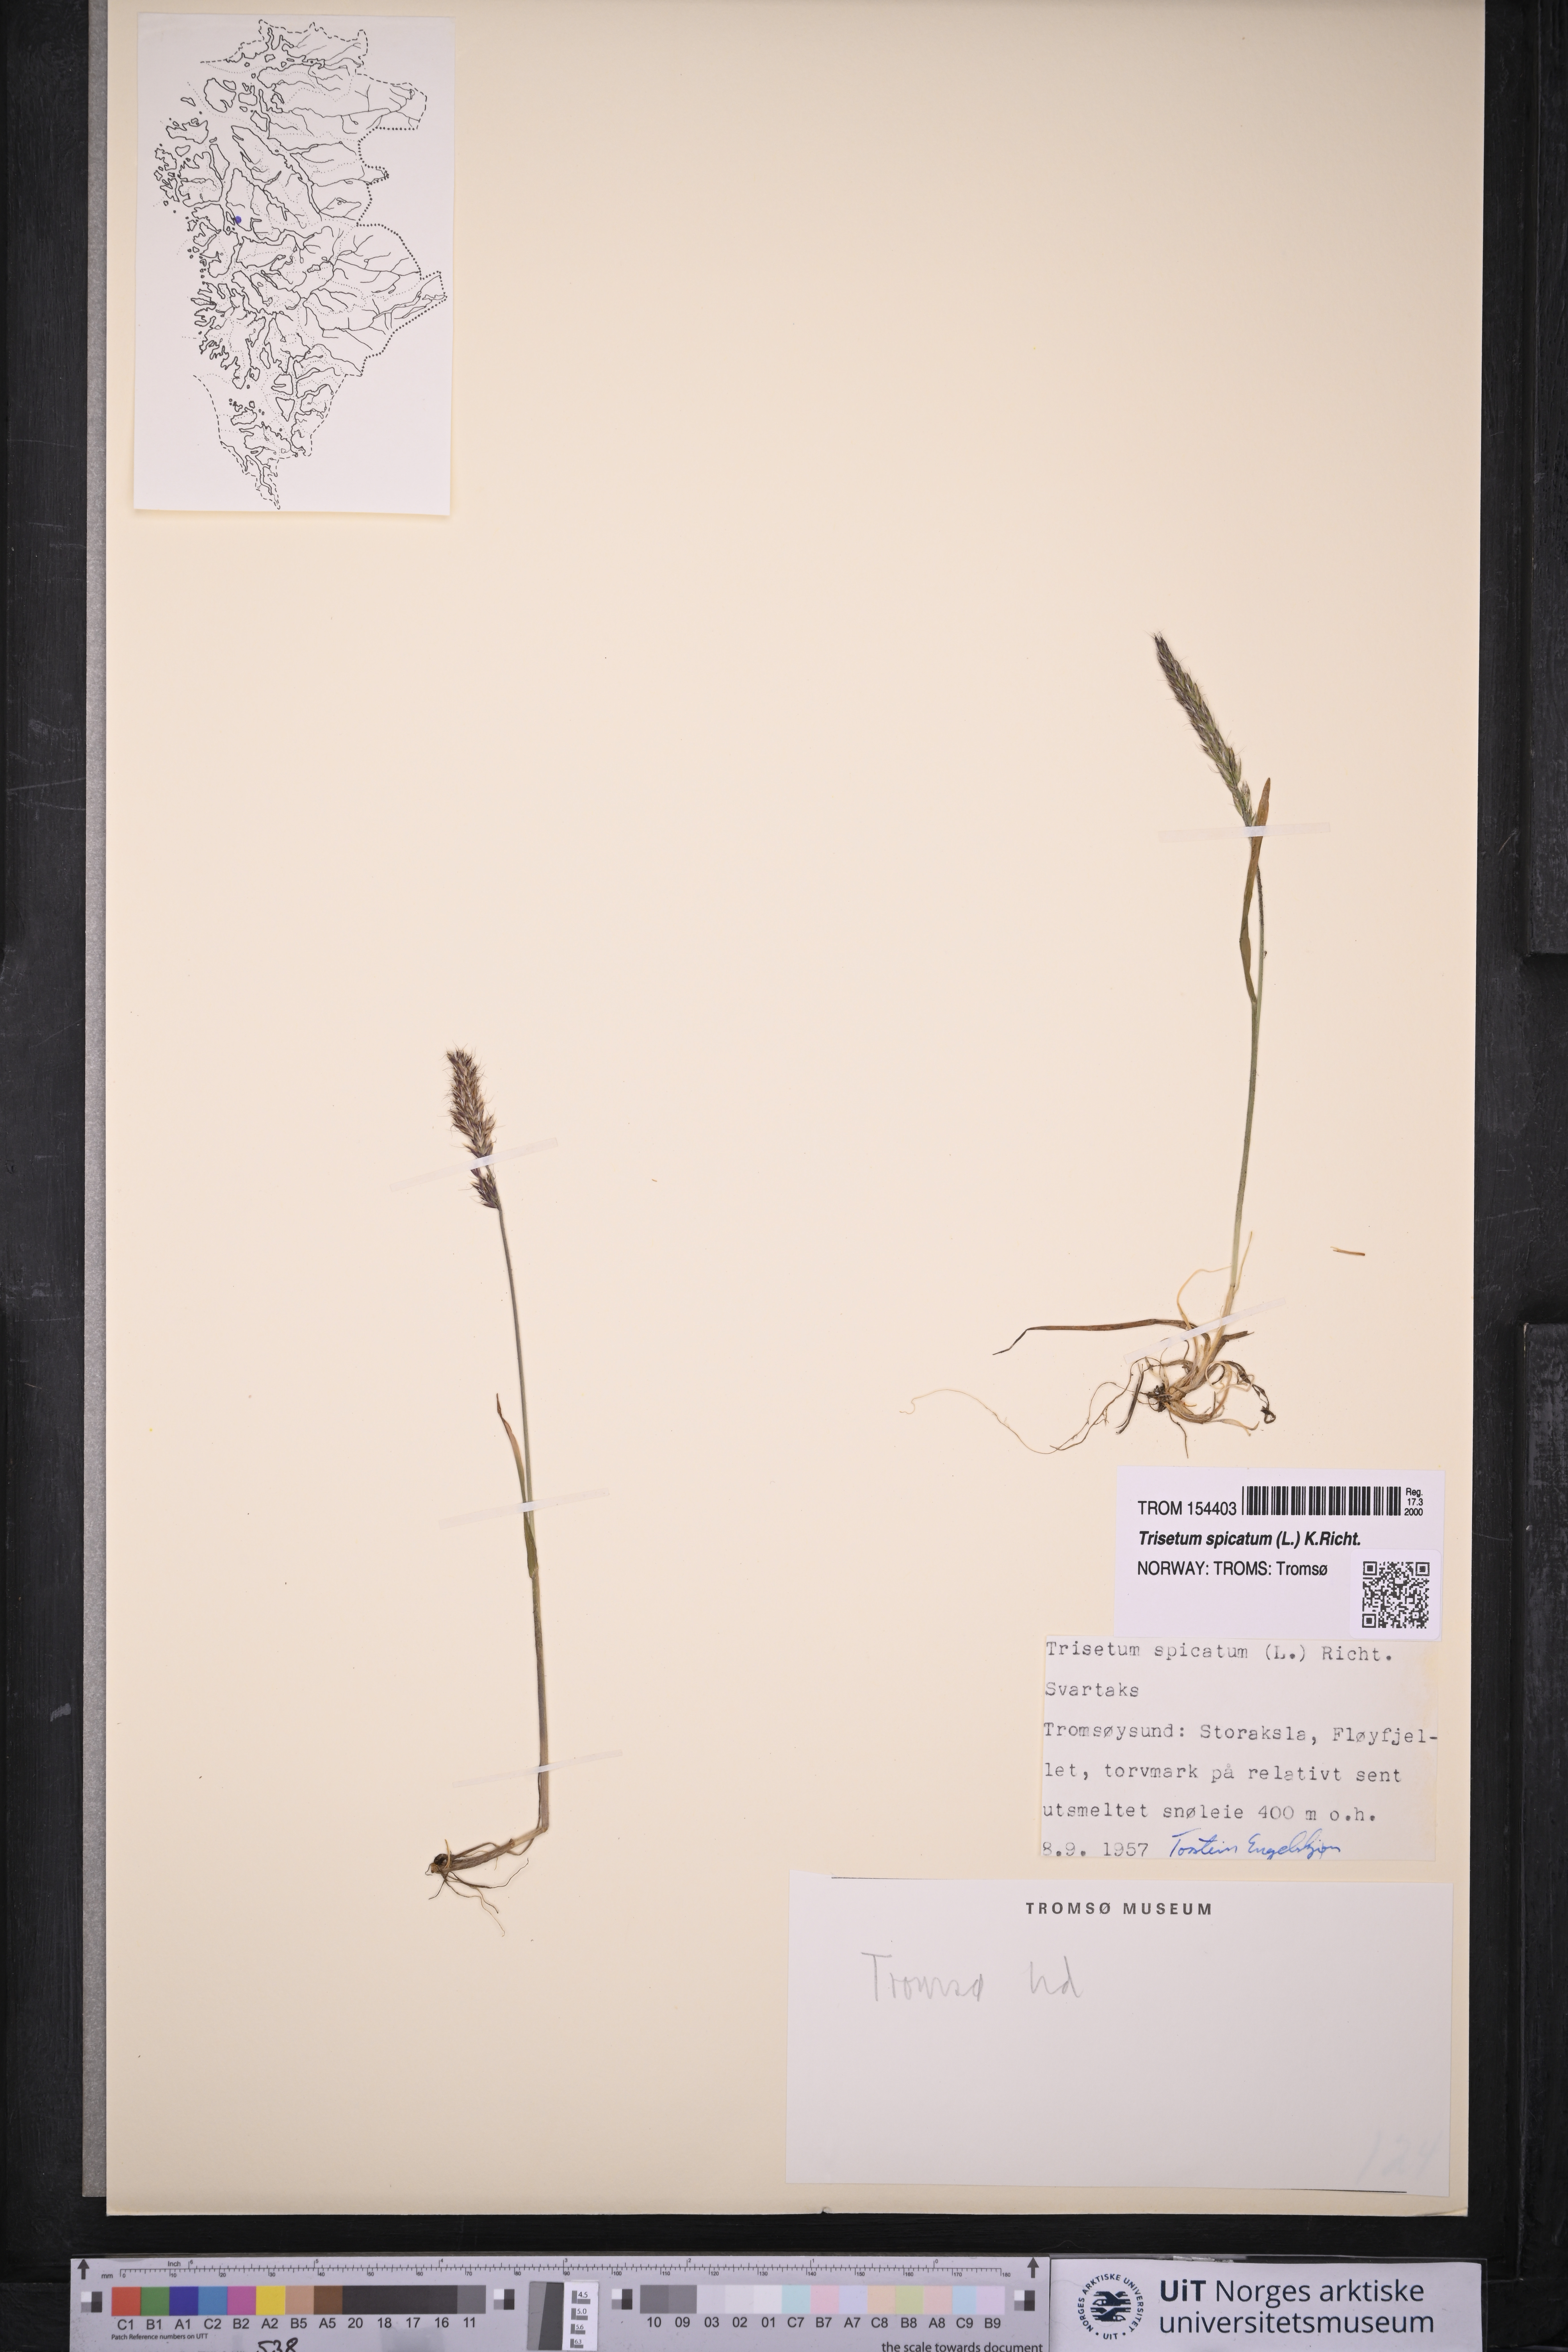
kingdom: Plantae
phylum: Tracheophyta
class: Liliopsida
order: Poales
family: Poaceae
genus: Koeleria
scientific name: Koeleria spicata
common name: Mountain trisetum
